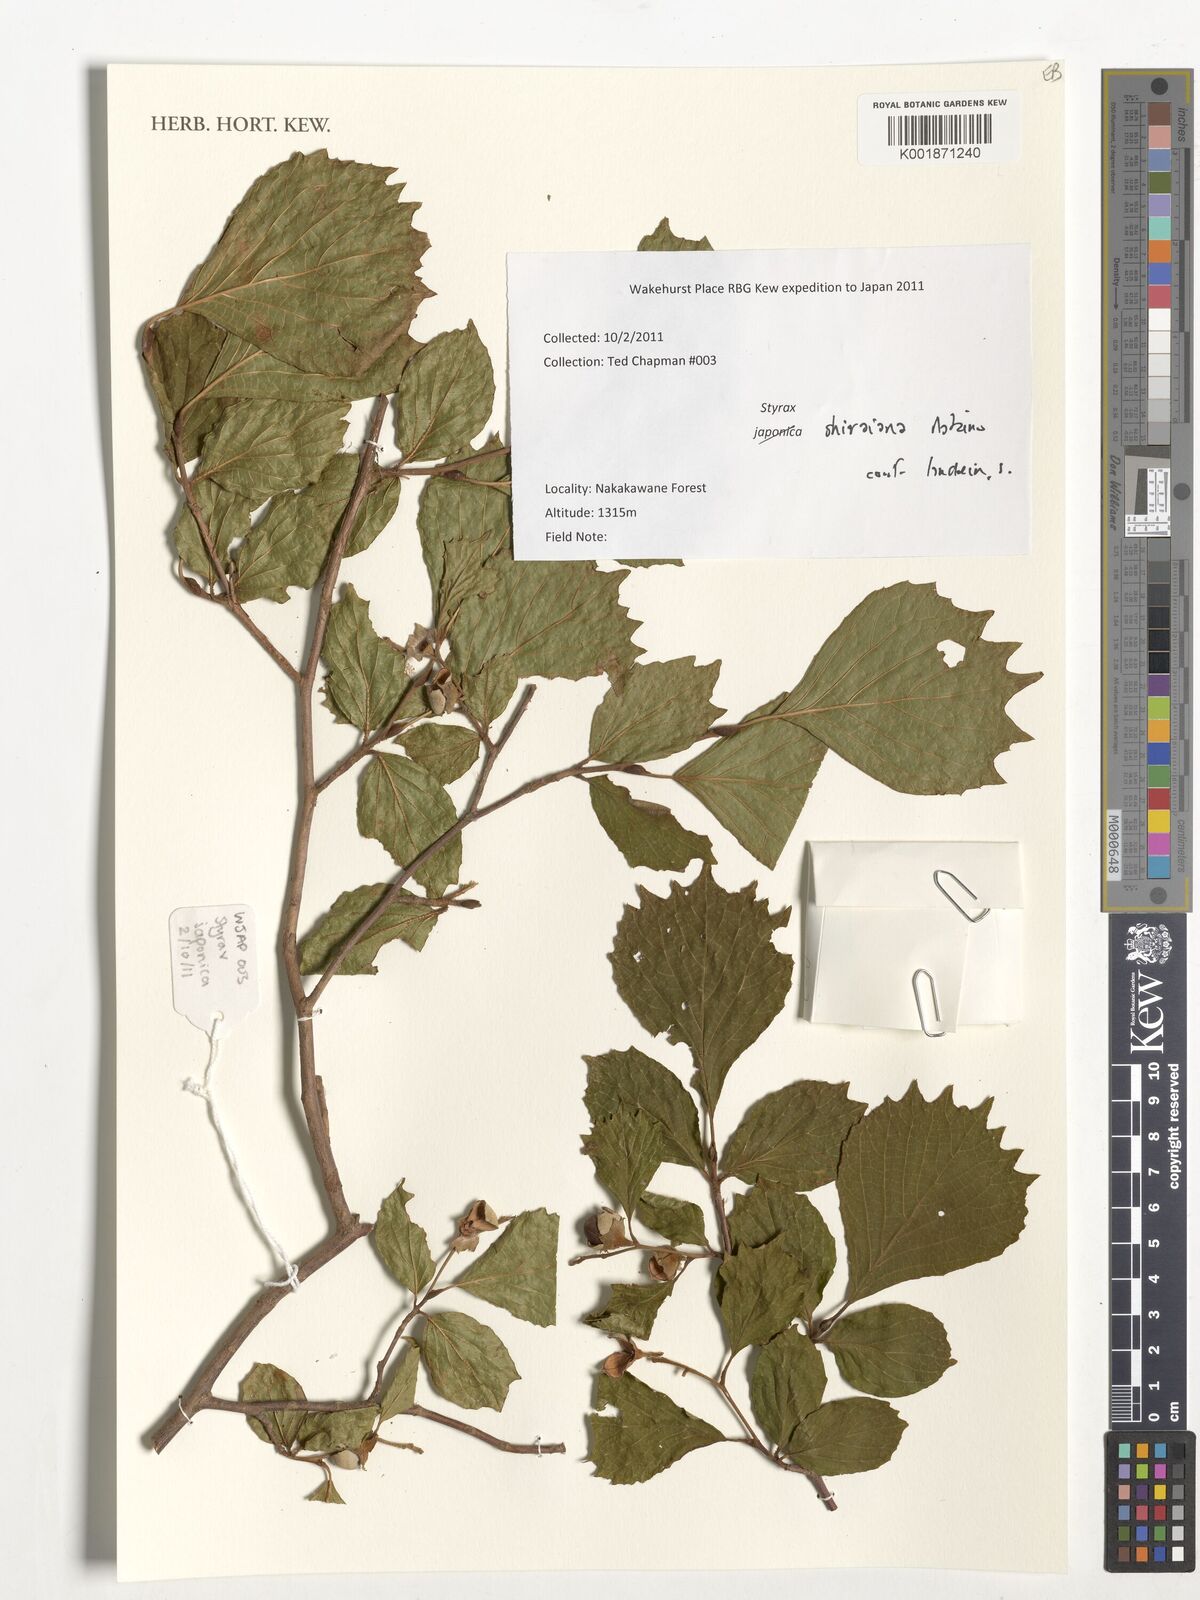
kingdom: Plantae
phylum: Tracheophyta
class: Magnoliopsida
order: Ericales
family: Styracaceae
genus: Styrax
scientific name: Styrax shiraianus
